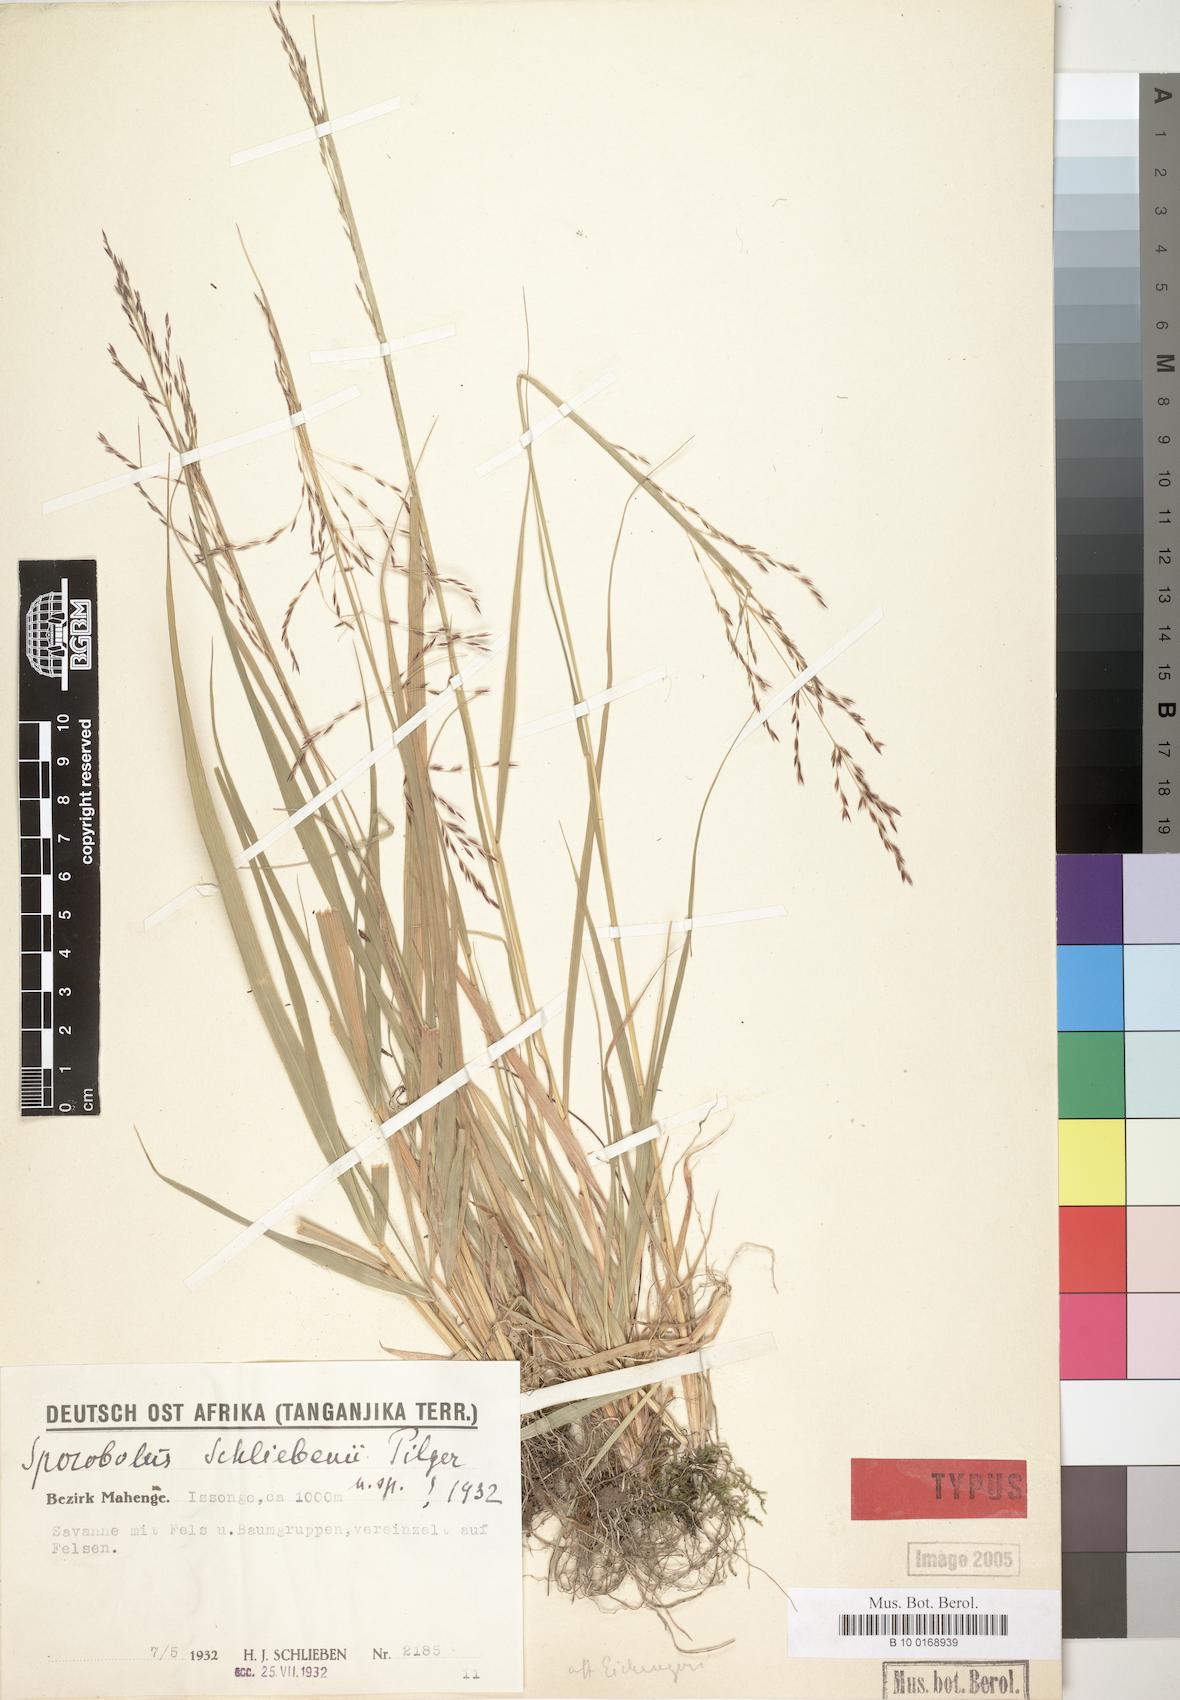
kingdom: Plantae
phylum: Tracheophyta
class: Liliopsida
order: Poales
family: Poaceae
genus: Sporobolus
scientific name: Sporobolus sanguineus
